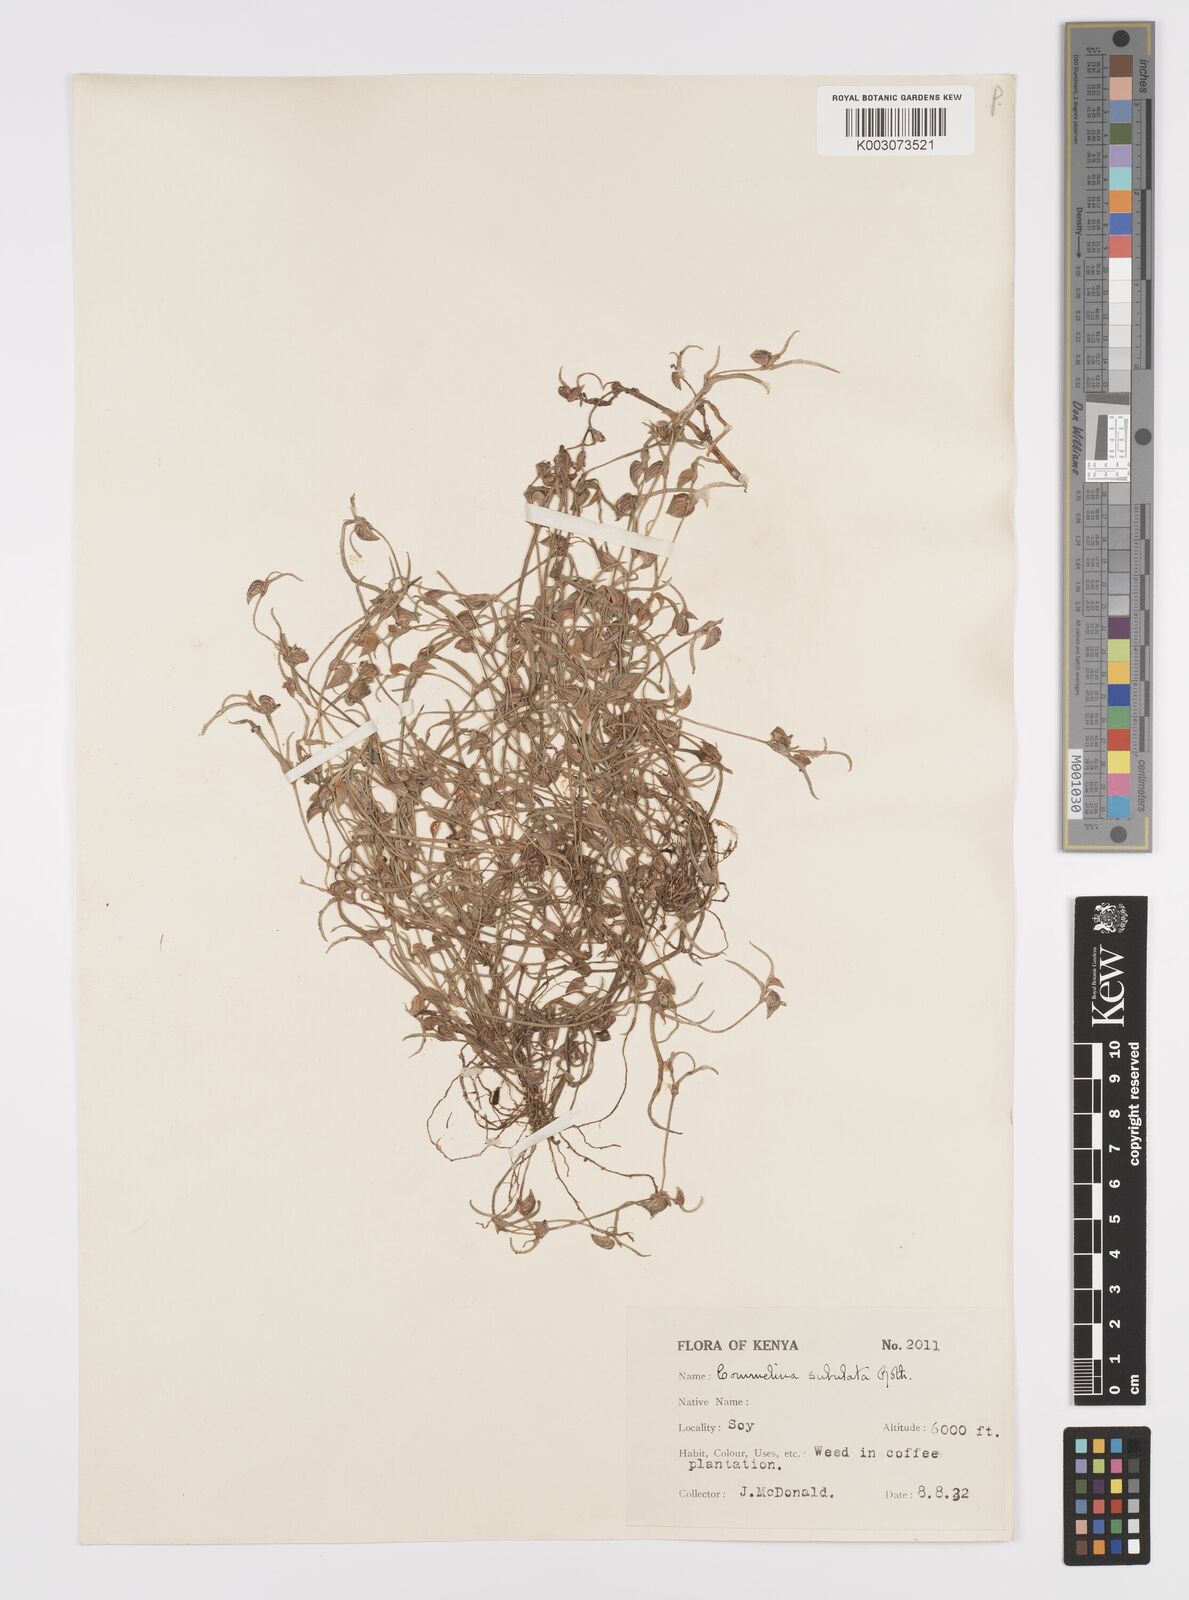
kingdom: Plantae
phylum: Tracheophyta
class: Liliopsida
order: Commelinales
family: Commelinaceae
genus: Commelina
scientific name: Commelina subulata
